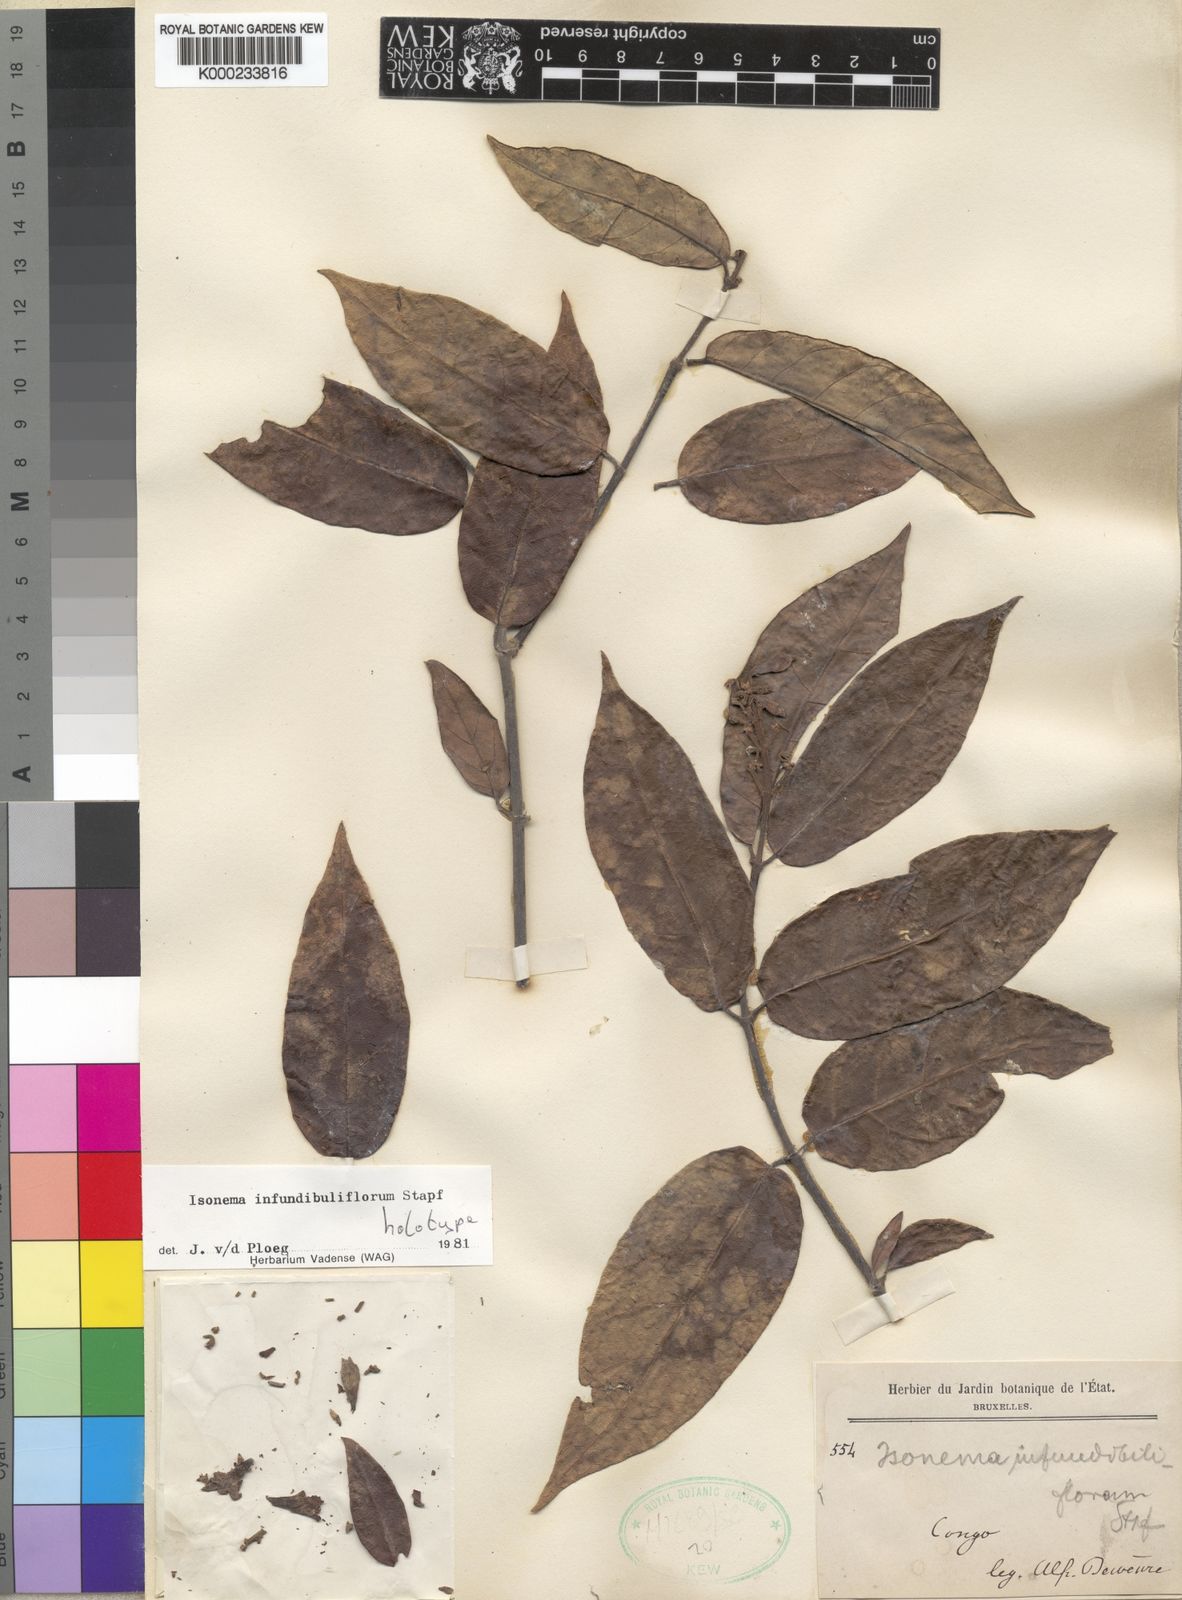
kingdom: Plantae
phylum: Tracheophyta
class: Magnoliopsida
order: Gentianales
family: Apocynaceae
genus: Isonema
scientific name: Isonema infundibuliflorum
